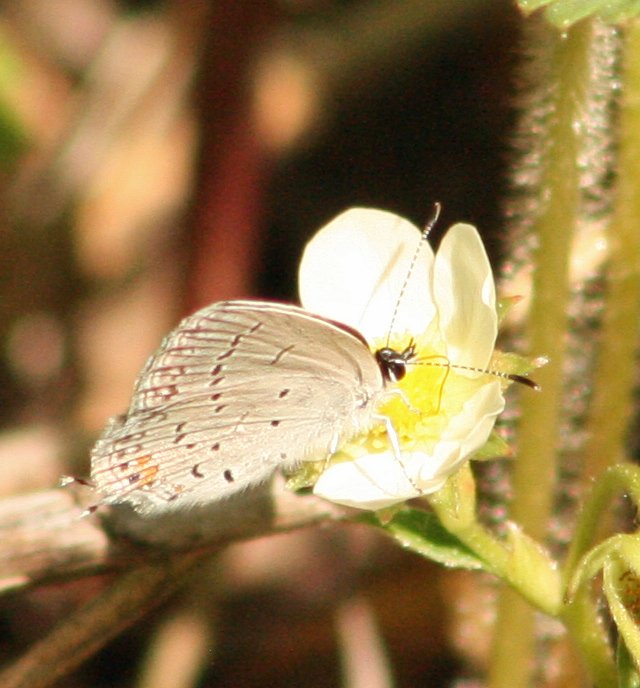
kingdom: Animalia
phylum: Arthropoda
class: Insecta
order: Lepidoptera
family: Lycaenidae
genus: Elkalyce
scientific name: Elkalyce comyntas
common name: Eastern Tailed-Blue
